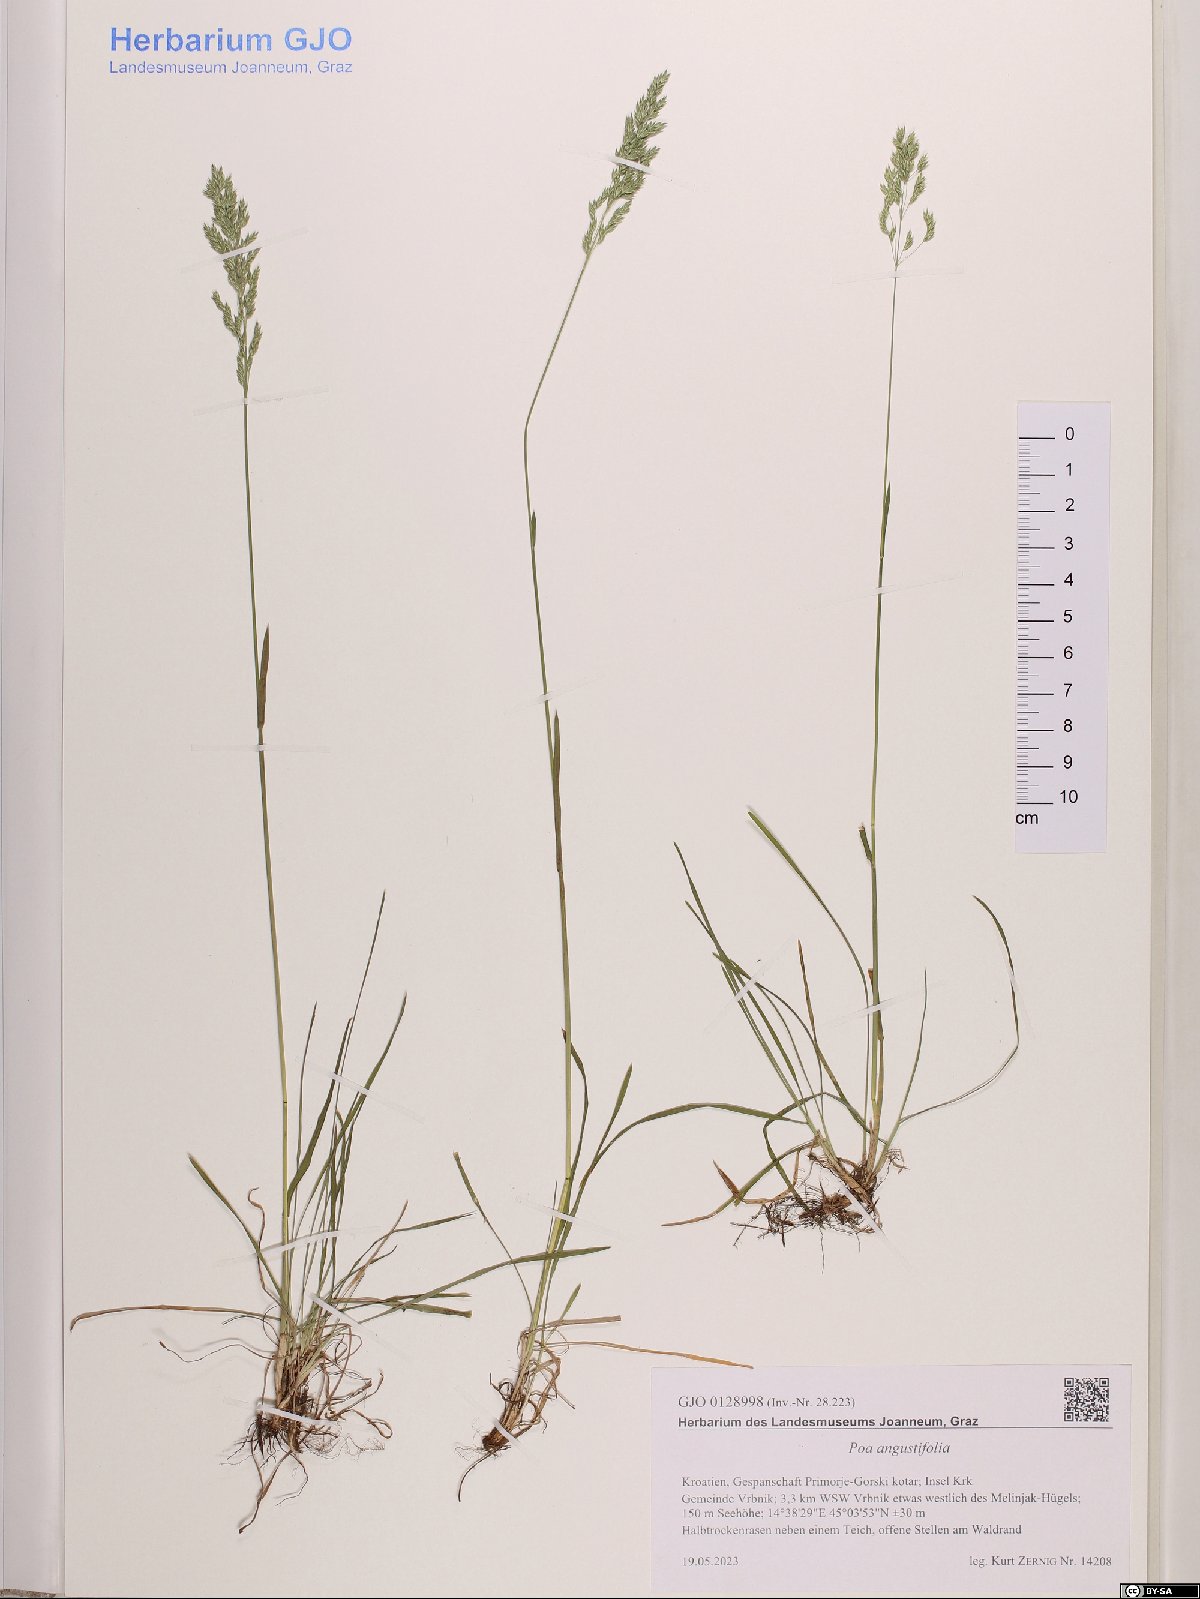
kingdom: Plantae
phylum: Tracheophyta
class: Liliopsida
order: Poales
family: Poaceae
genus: Poa
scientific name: Poa angustifolia
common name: Narrow-leaved meadow-grass
